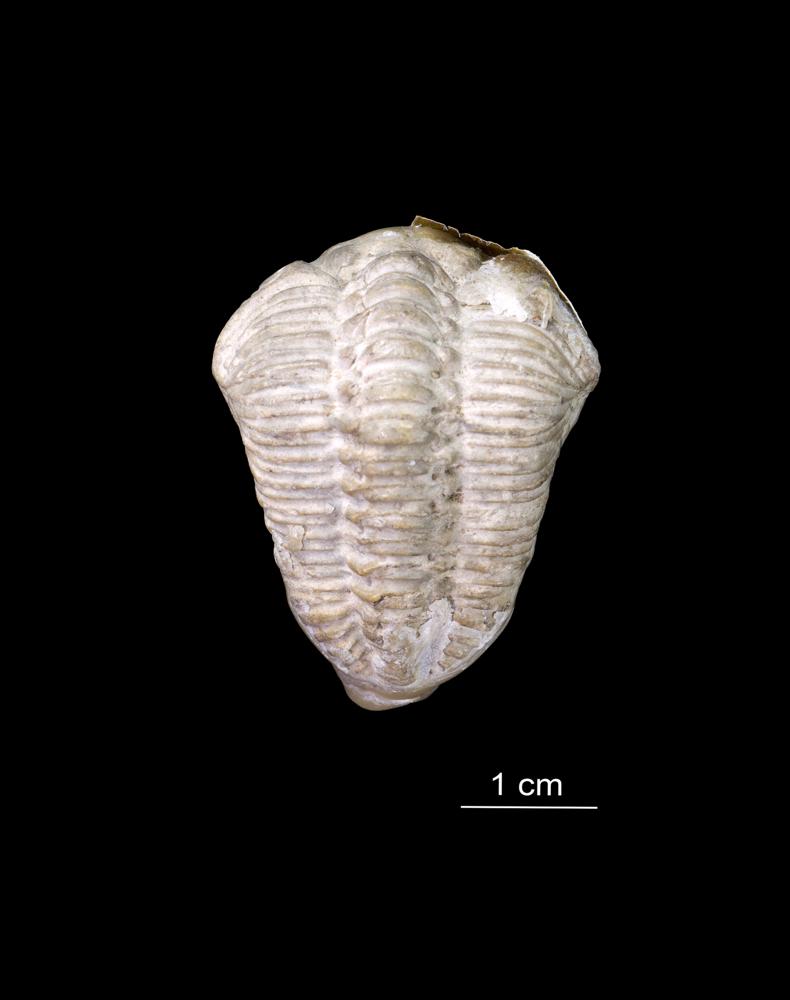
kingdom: Animalia
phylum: Arthropoda
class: Trilobita
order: Phacopida
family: Pterygometopidae
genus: Chasmops
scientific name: Chasmops odini
